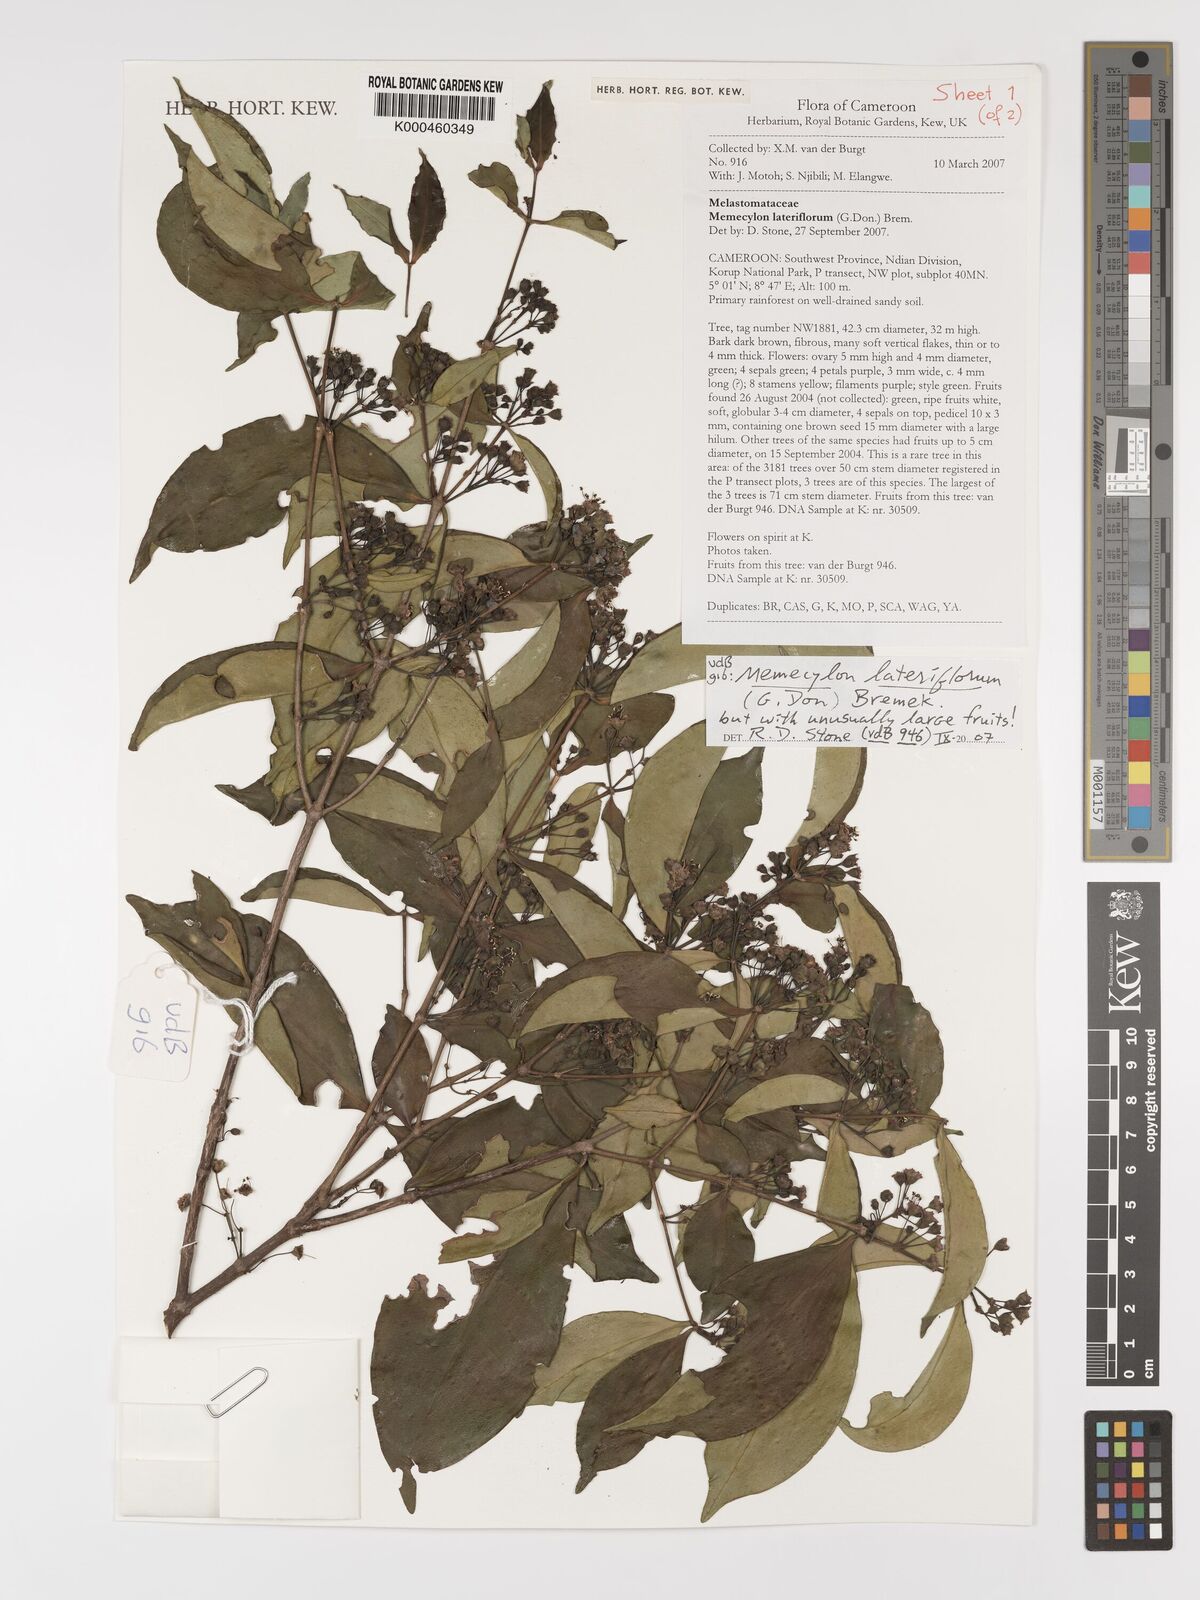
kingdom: Plantae
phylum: Tracheophyta
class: Magnoliopsida
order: Myrtales
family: Melastomataceae
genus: Memecylon
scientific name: Memecylon lateriflorum
